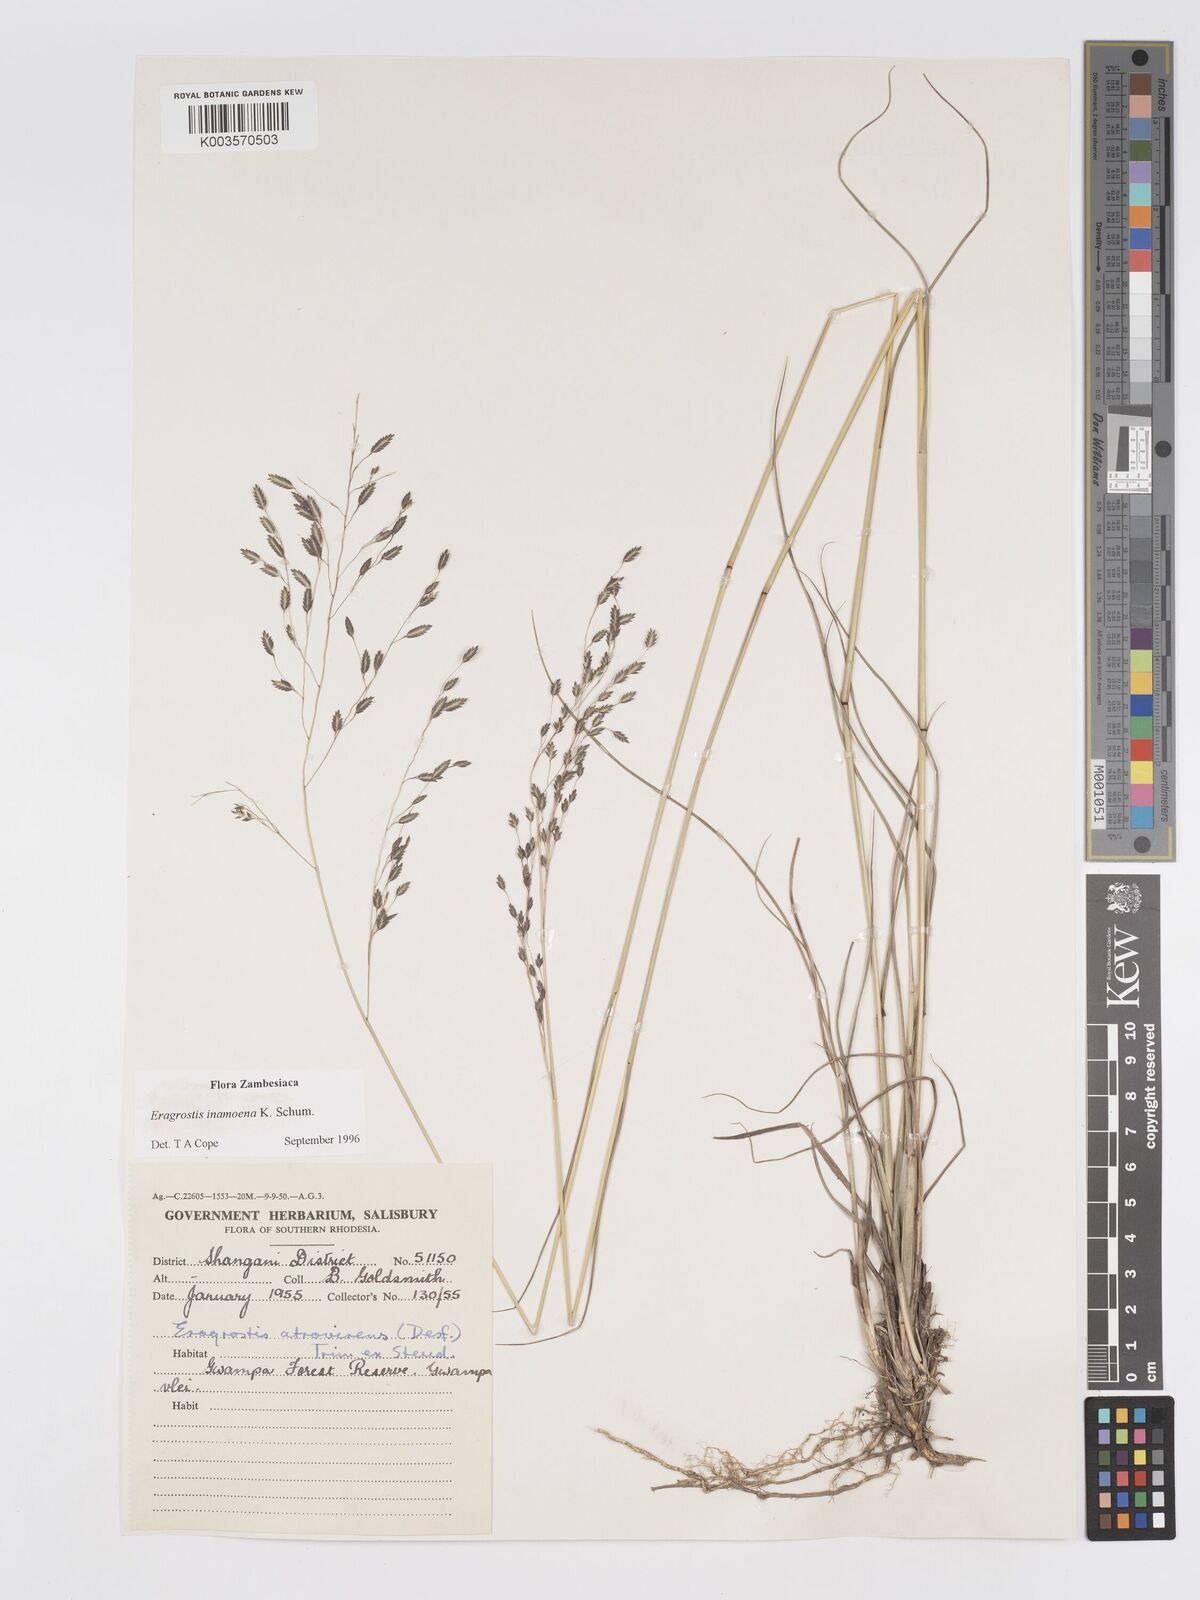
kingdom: Plantae
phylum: Tracheophyta
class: Liliopsida
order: Poales
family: Poaceae
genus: Eragrostis
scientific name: Eragrostis inamoena
